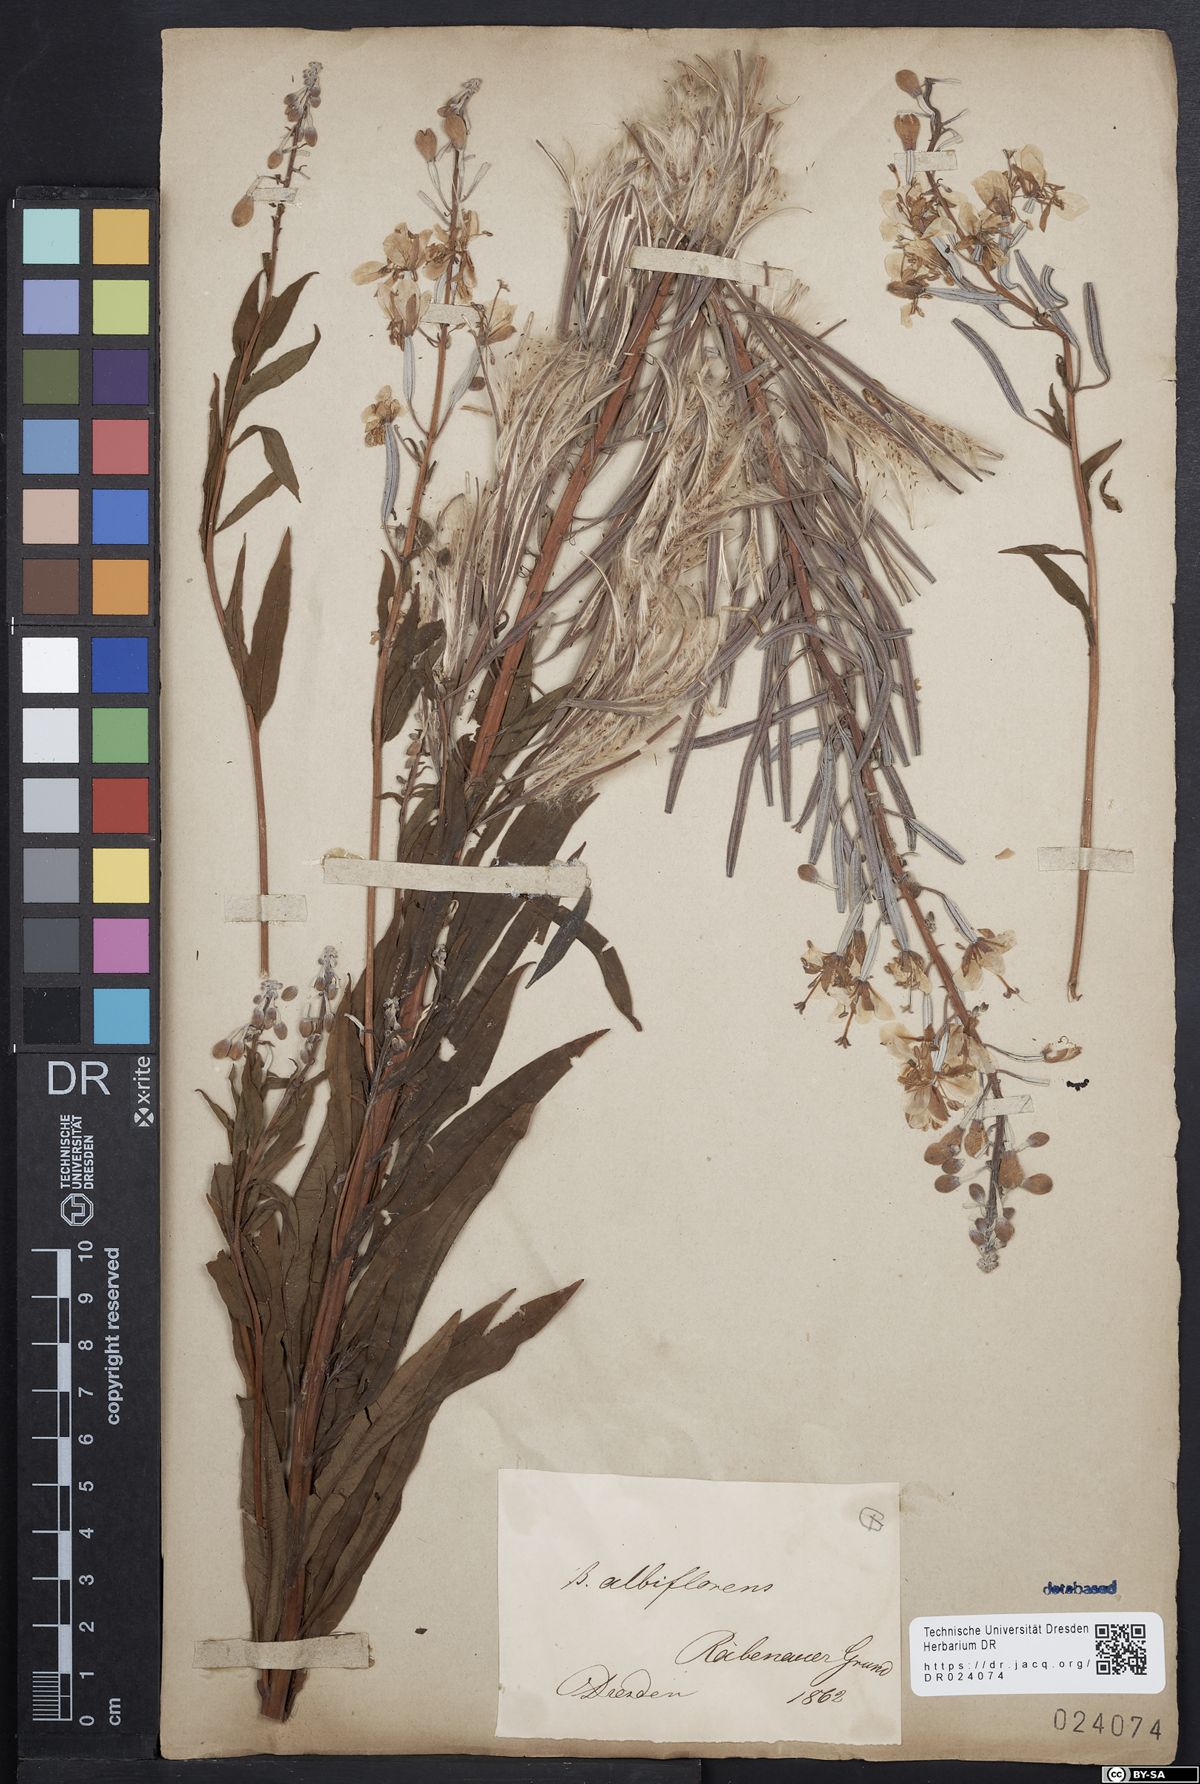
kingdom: Plantae
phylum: Tracheophyta
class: Magnoliopsida
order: Myrtales
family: Onagraceae
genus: Chamaenerion
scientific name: Chamaenerion angustifolium
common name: Fireweed
